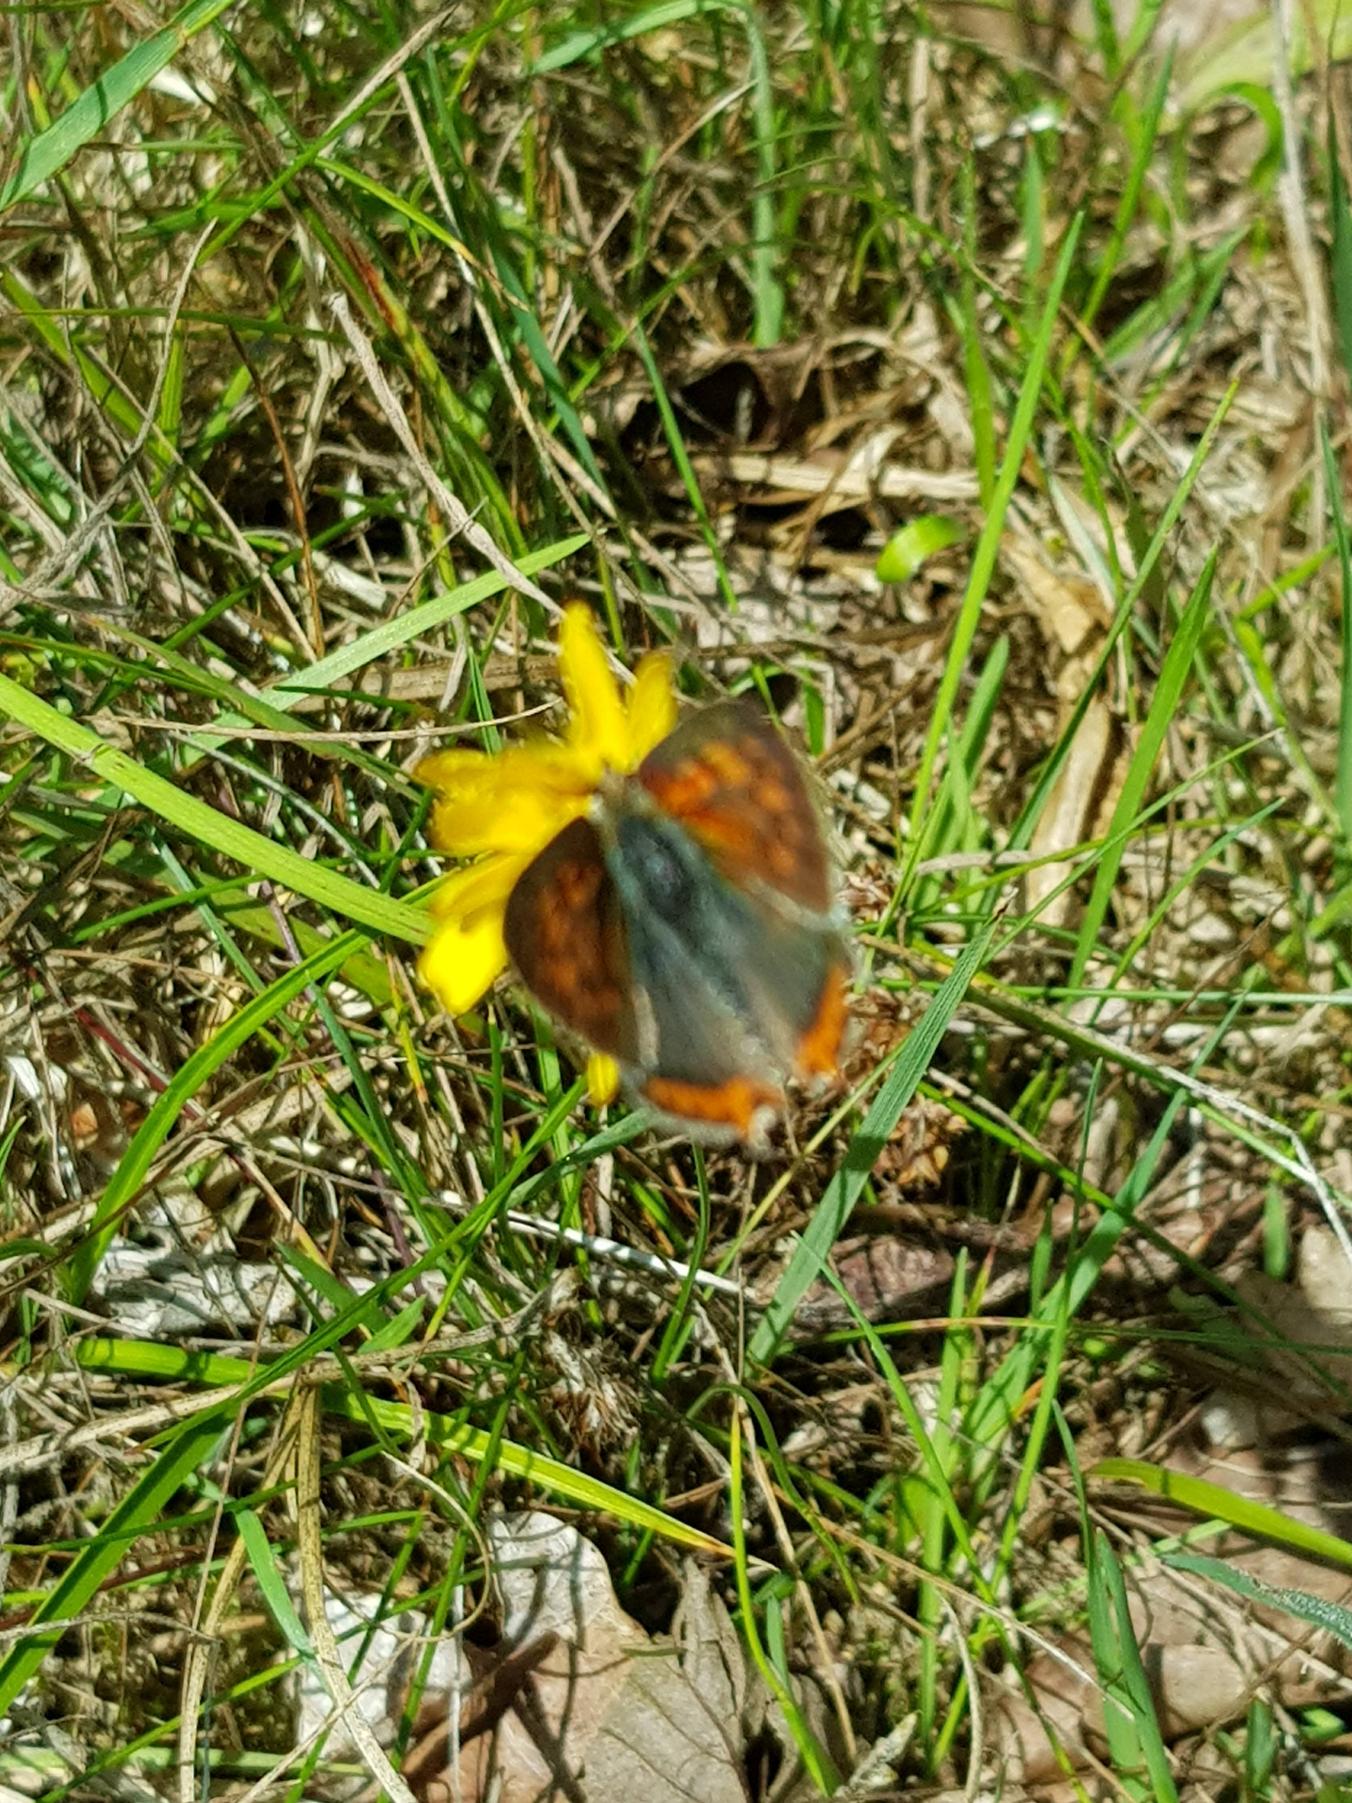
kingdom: Animalia
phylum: Arthropoda
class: Insecta
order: Lepidoptera
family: Lycaenidae
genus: Lycaena
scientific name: Lycaena phlaeas
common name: Lille ildfugl
